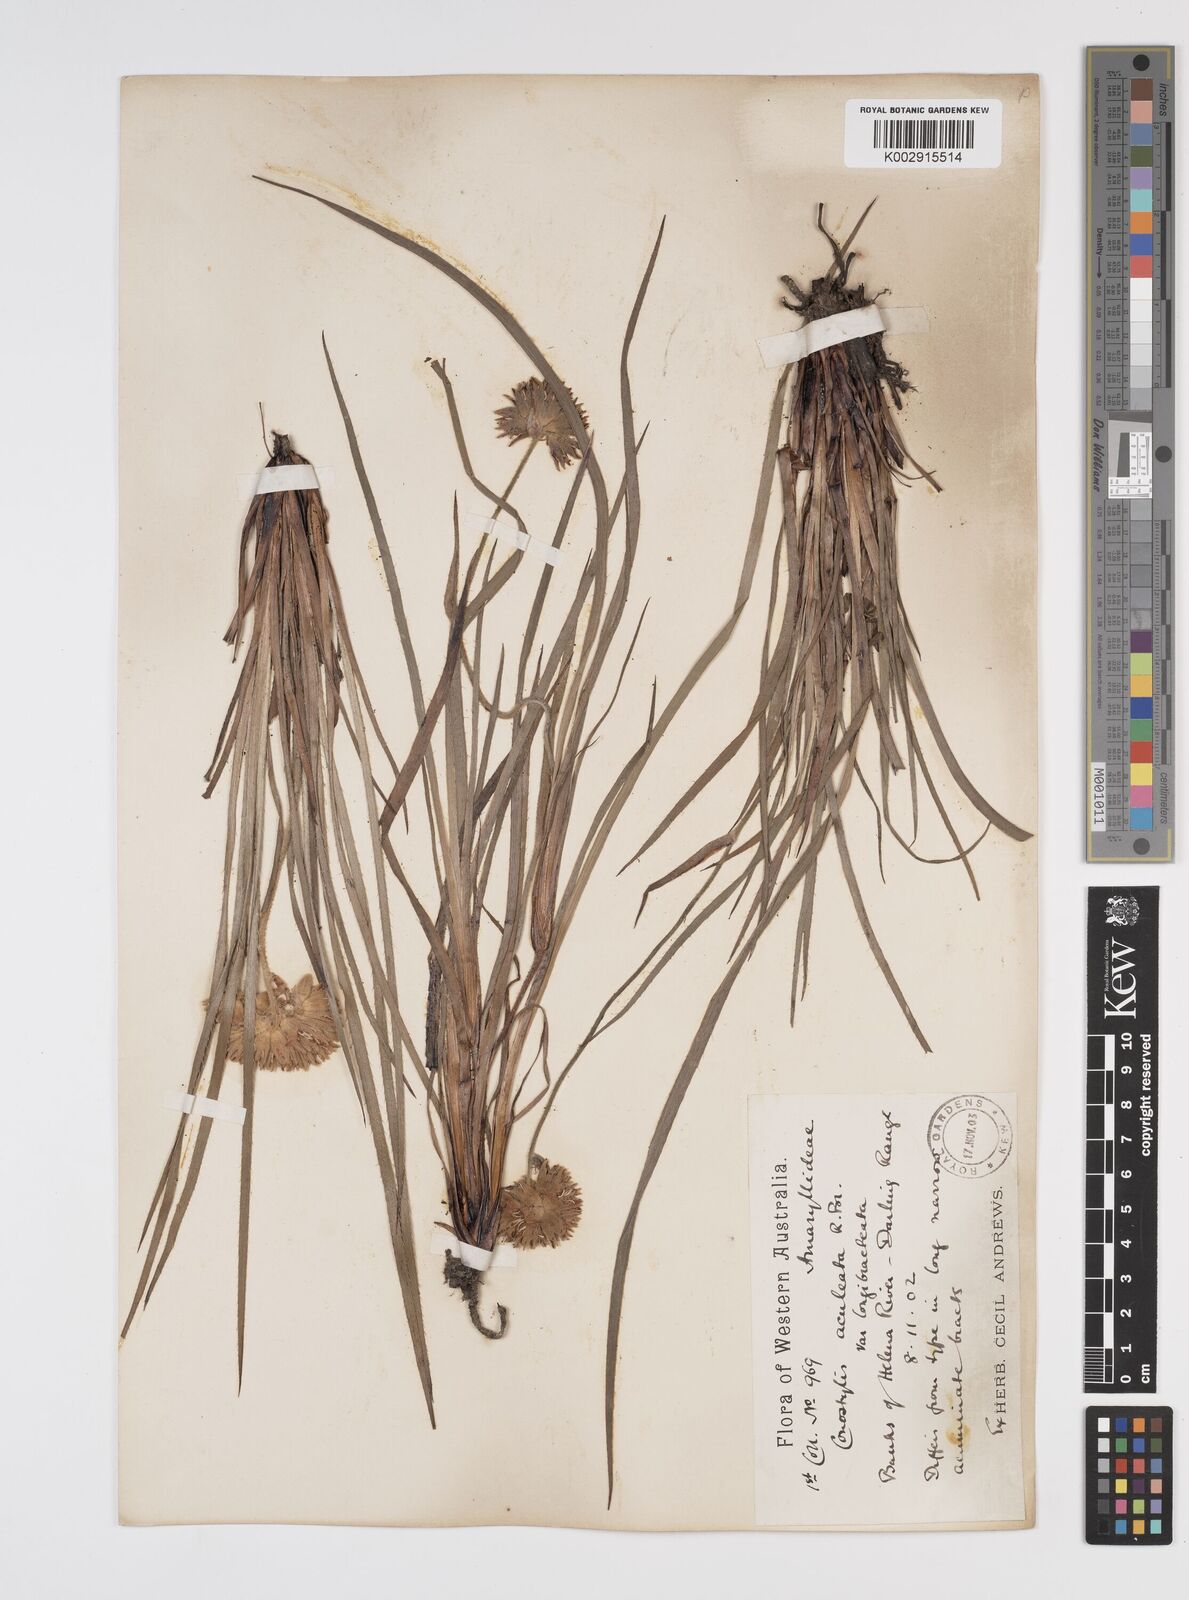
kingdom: Plantae
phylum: Tracheophyta
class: Liliopsida
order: Commelinales
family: Haemodoraceae
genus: Conostylis
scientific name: Conostylis aculeata
